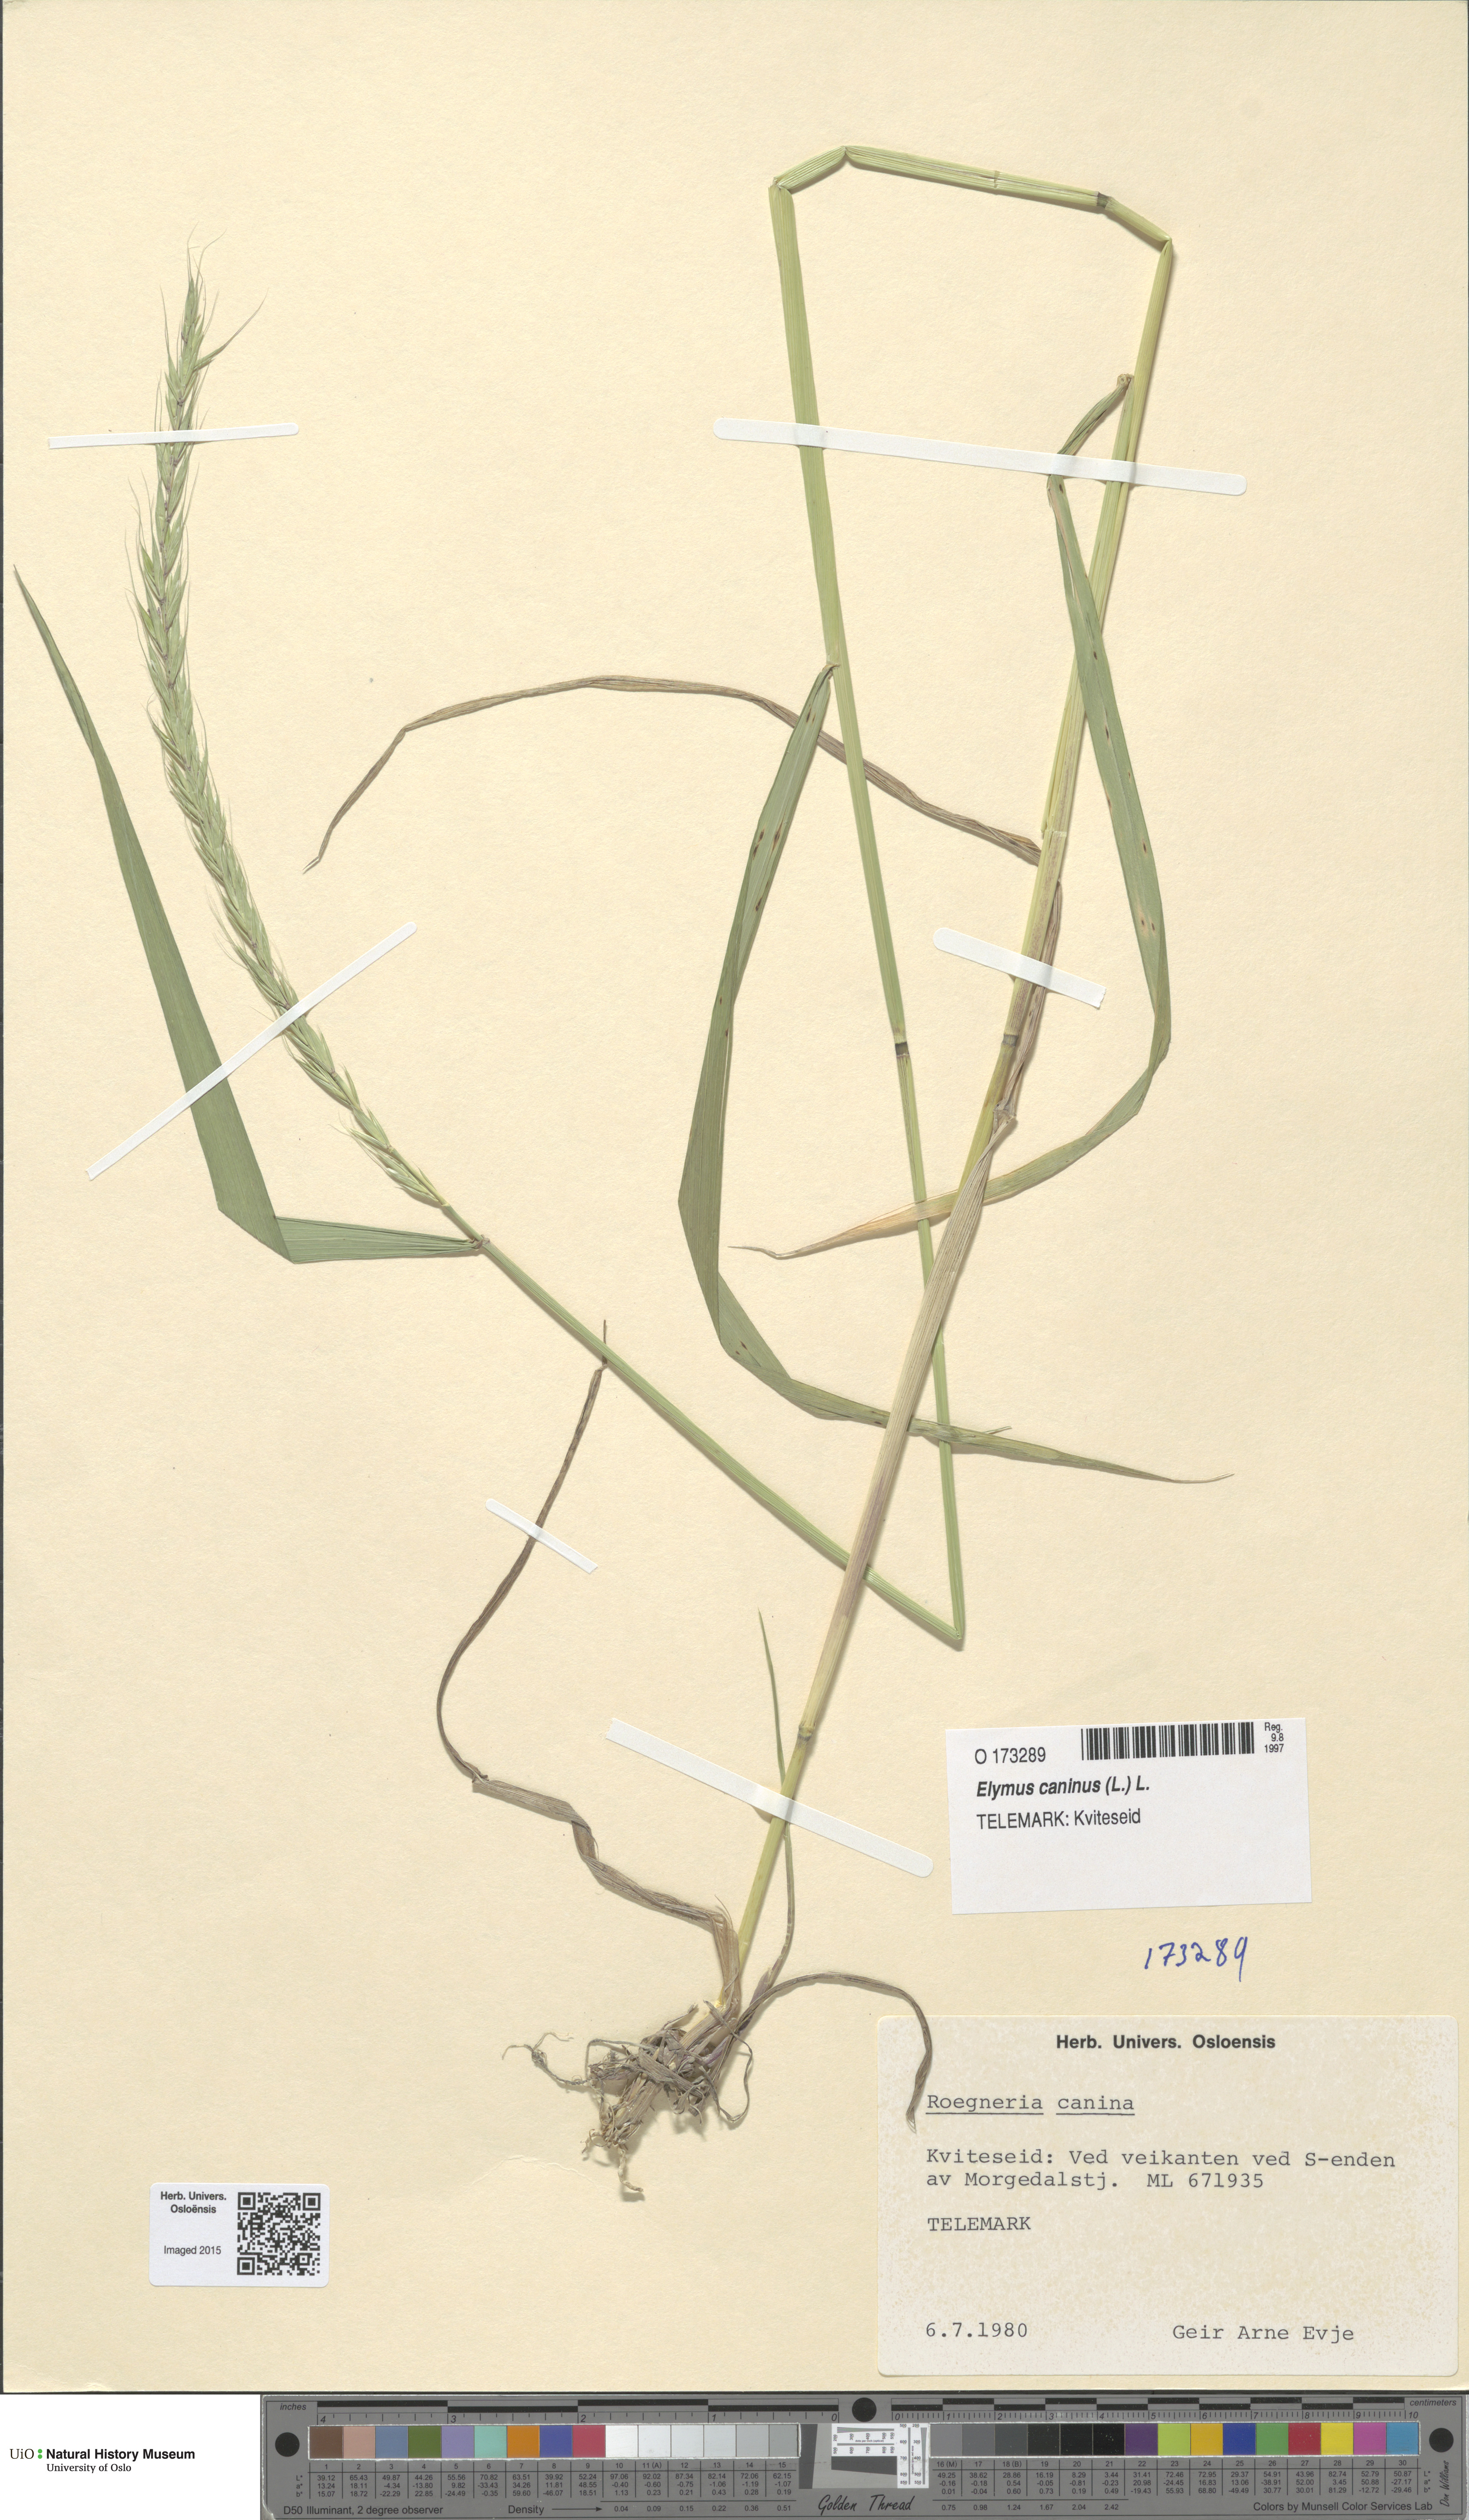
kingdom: Plantae
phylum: Tracheophyta
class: Liliopsida
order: Poales
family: Poaceae
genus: Elymus
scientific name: Elymus caninus
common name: Bearded couch
